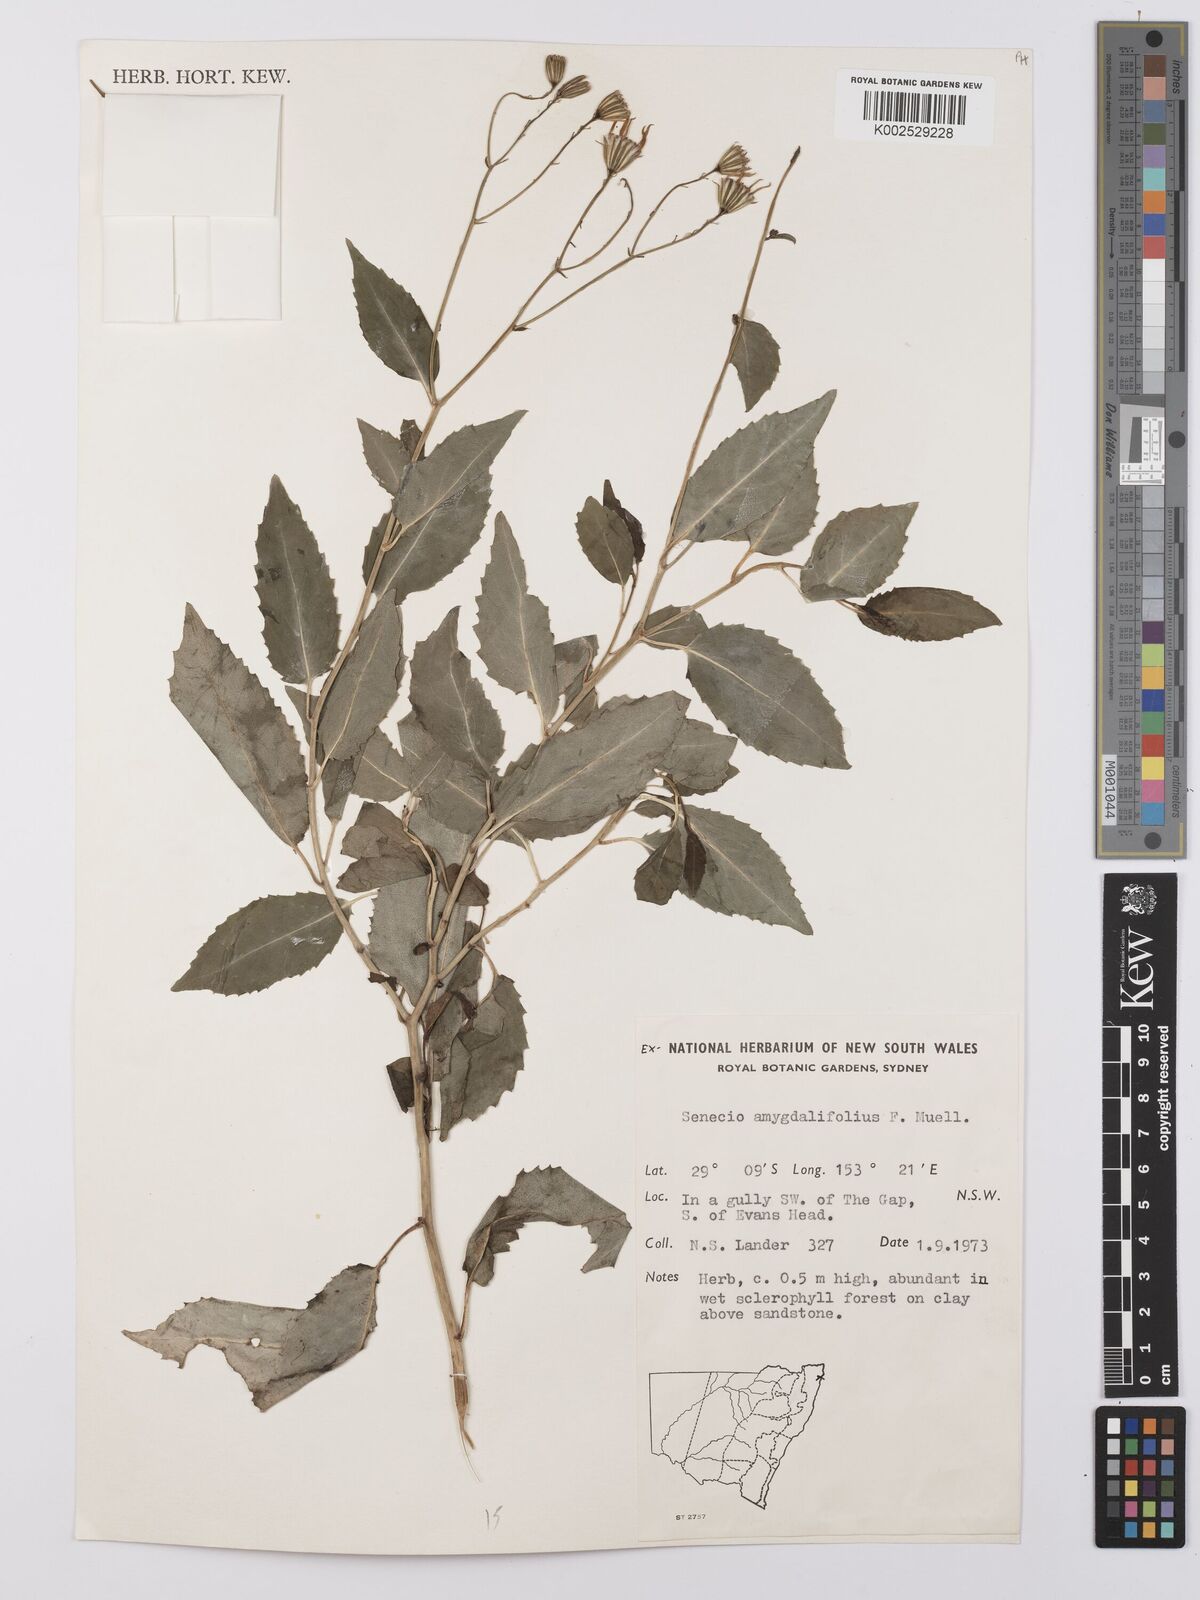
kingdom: Plantae
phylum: Tracheophyta
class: Magnoliopsida
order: Asterales
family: Asteraceae
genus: Lordhowea
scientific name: Lordhowea amygdalifolia
